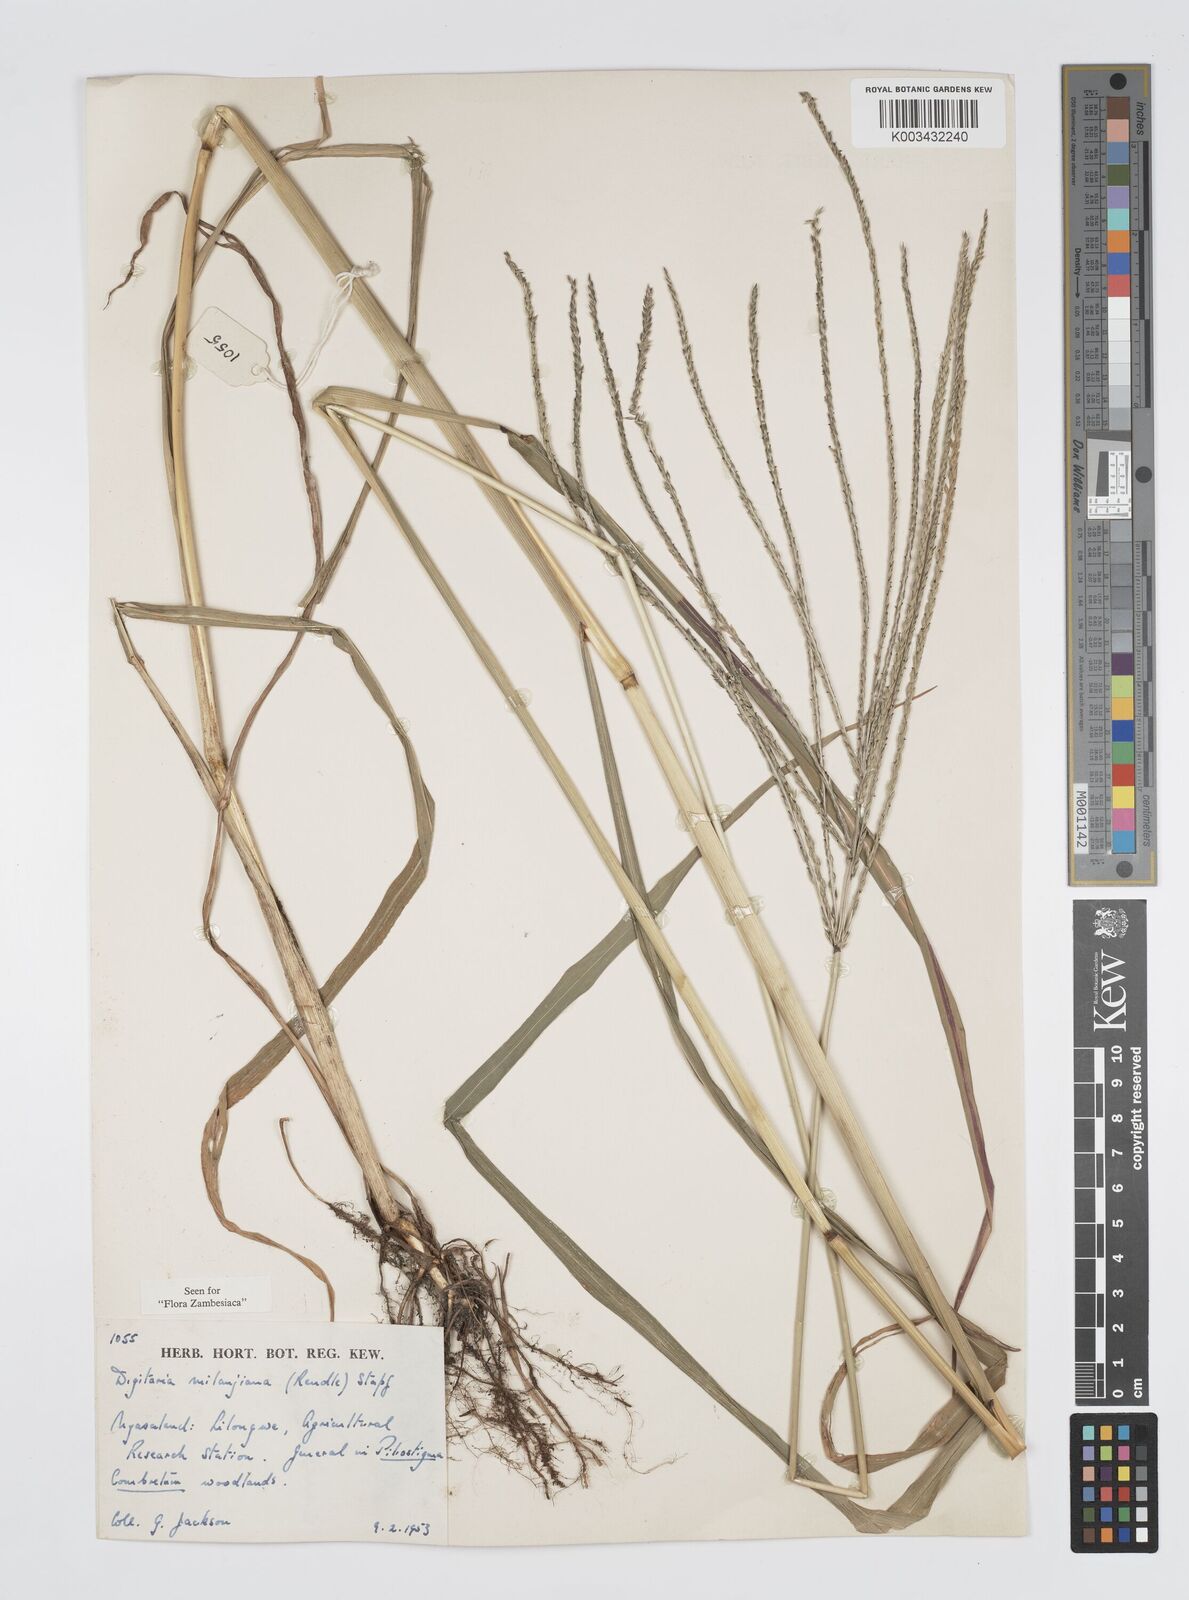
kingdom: Plantae
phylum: Tracheophyta
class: Liliopsida
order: Poales
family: Poaceae
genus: Digitaria
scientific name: Digitaria milanjiana
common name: Madagascar crabgrass
